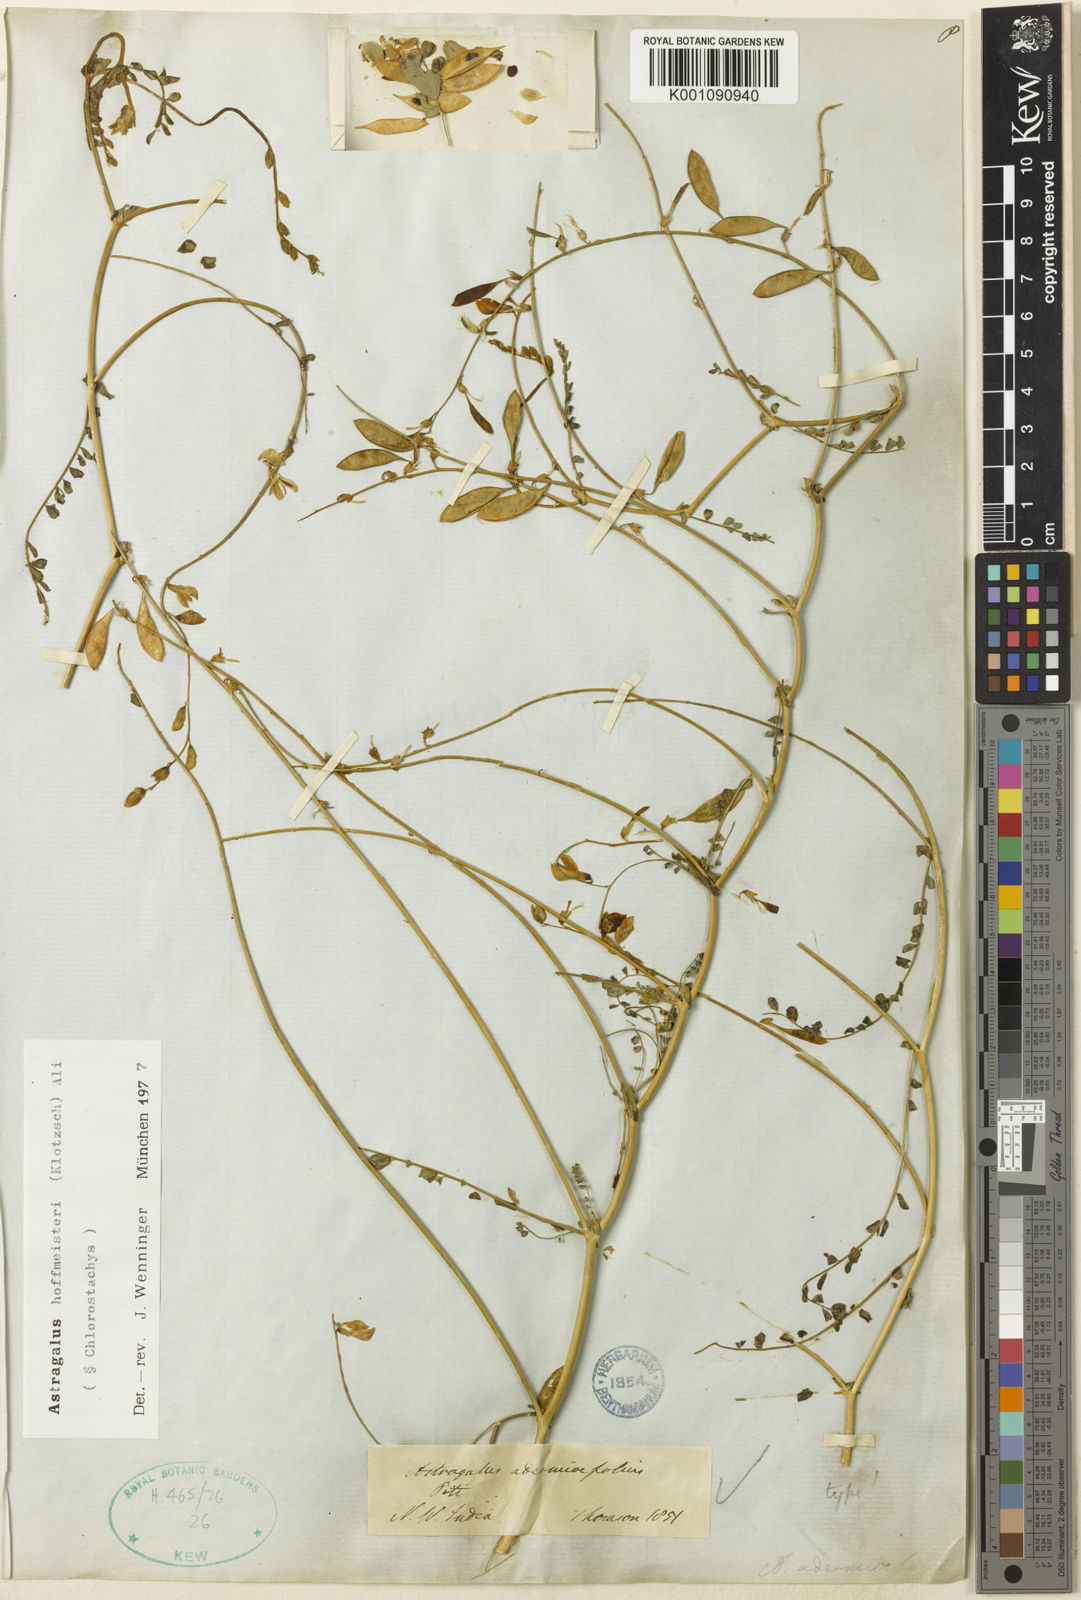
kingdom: Plantae
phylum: Tracheophyta
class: Magnoliopsida
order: Fabales
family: Fabaceae
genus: Astragalus
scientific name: Astragalus hoffmeisteri
